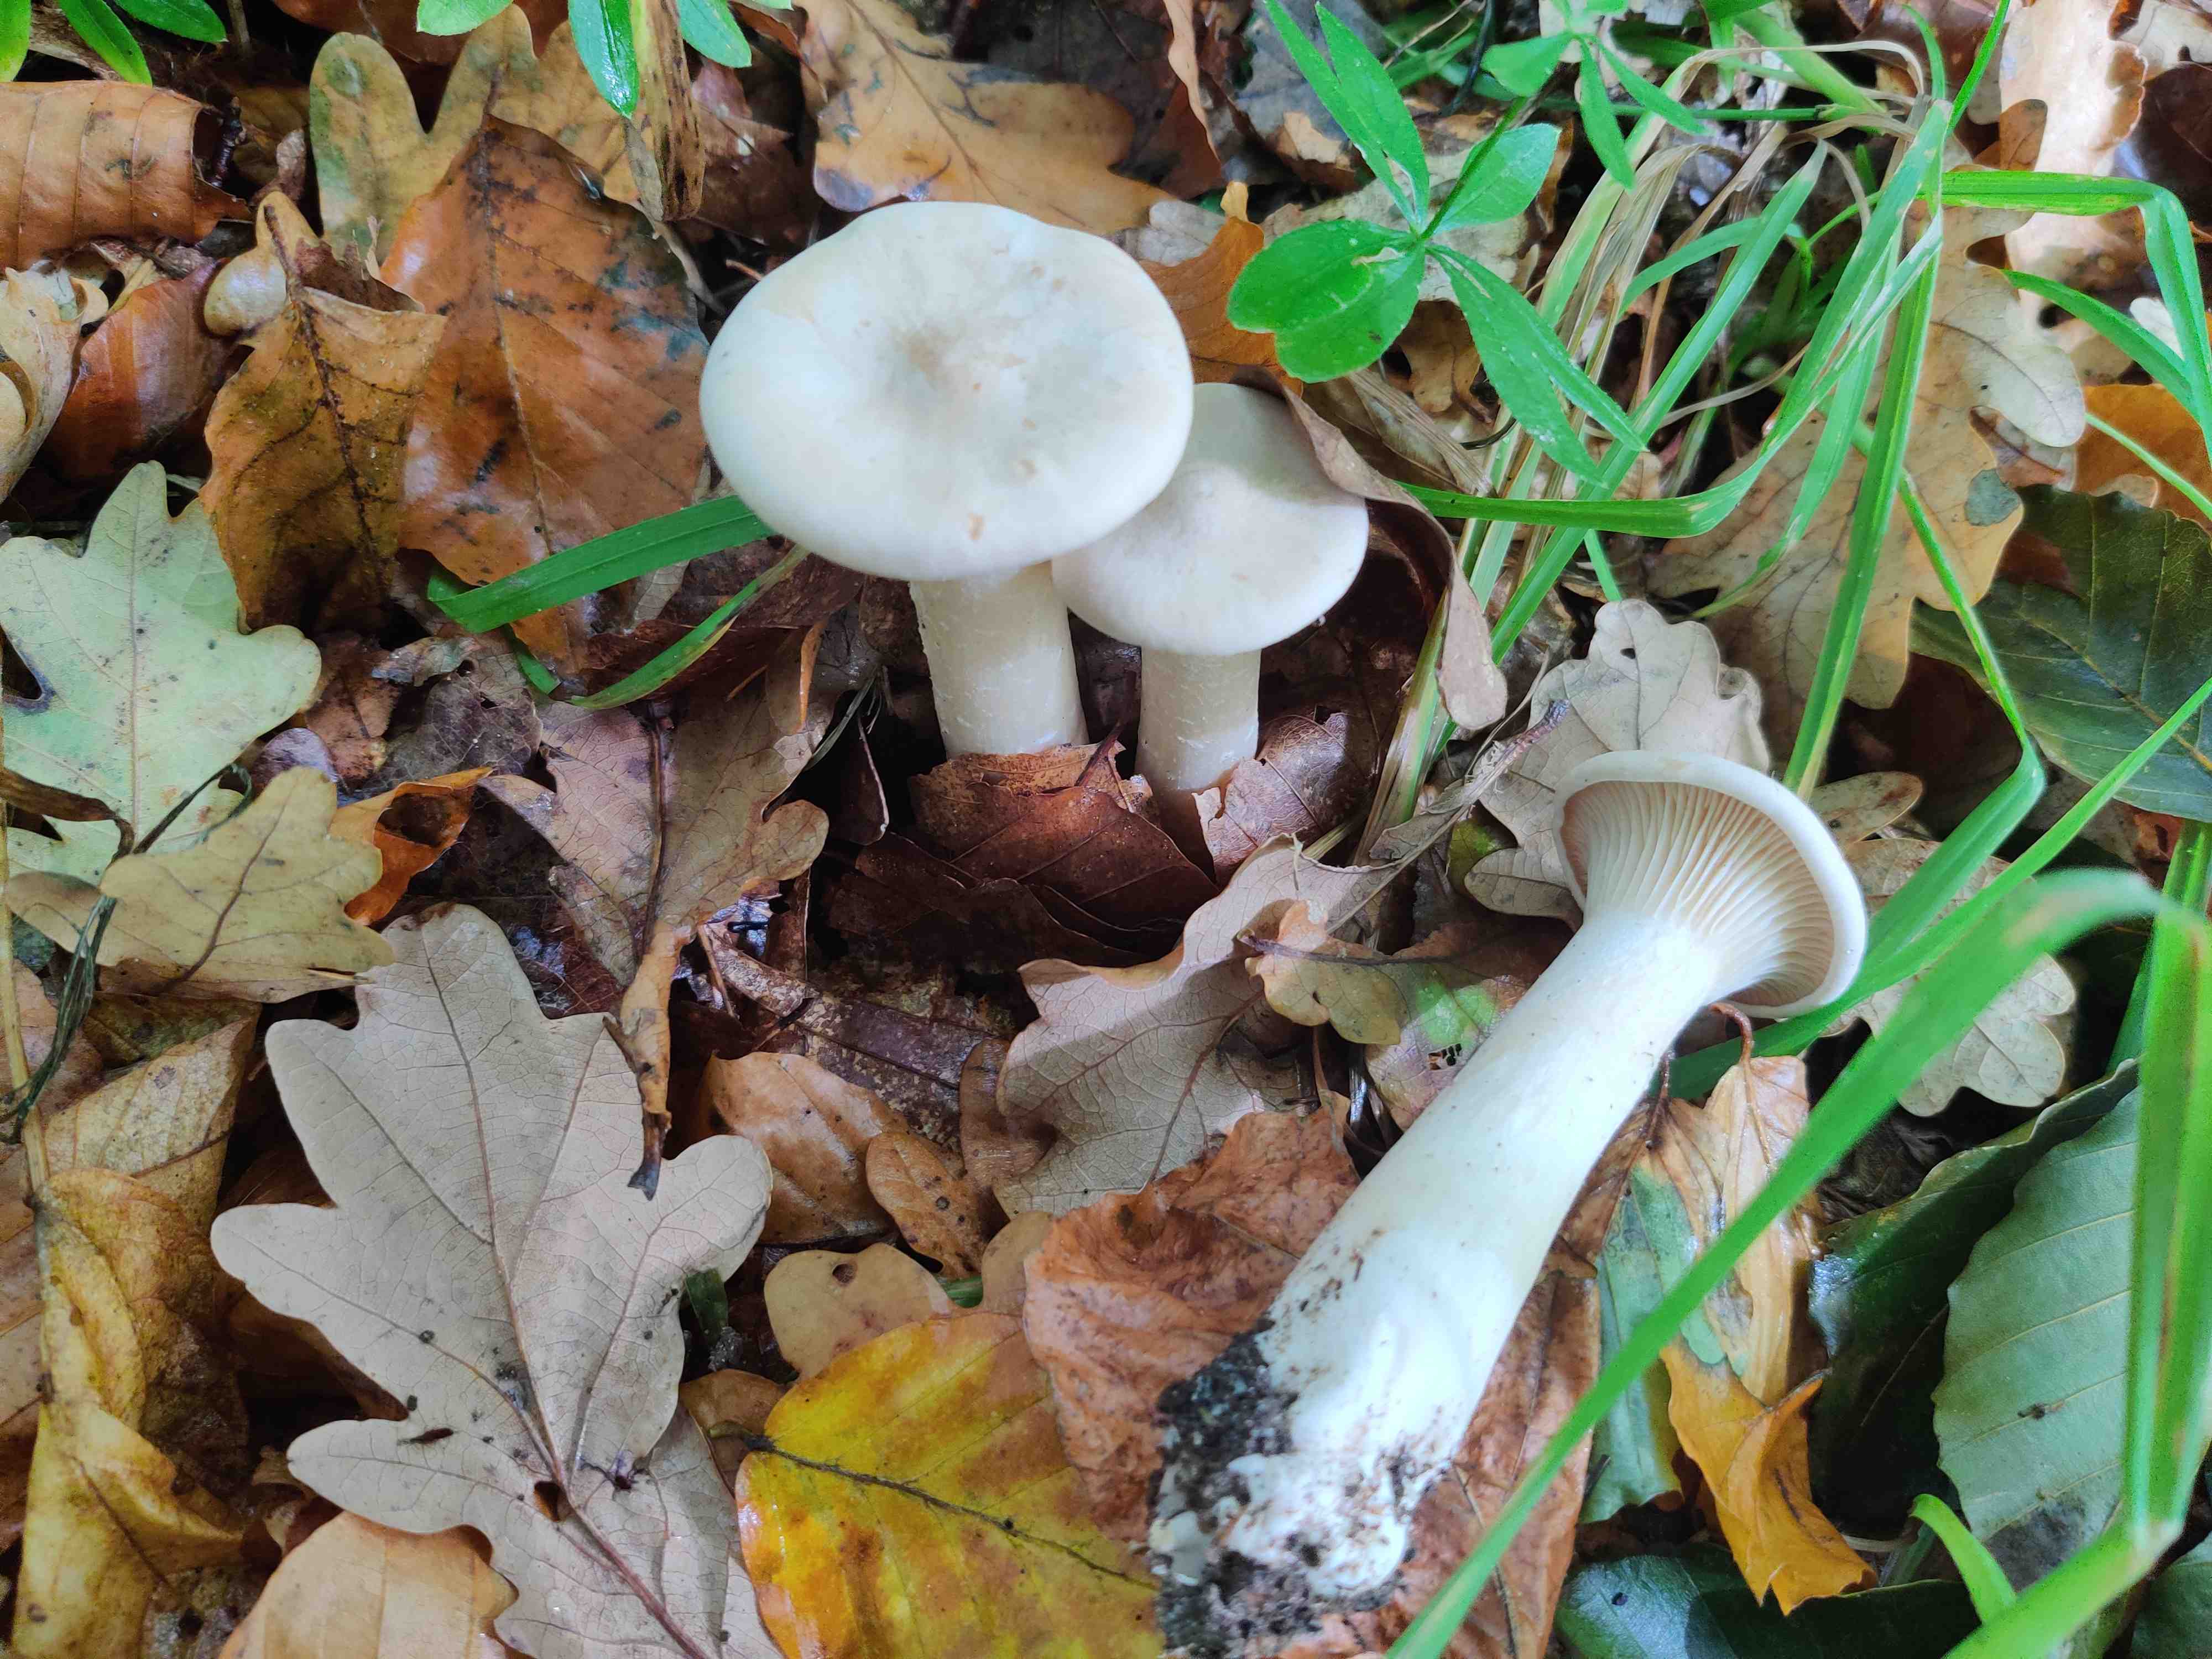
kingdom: Fungi
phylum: Basidiomycota
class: Agaricomycetes
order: Agaricales
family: Tricholomataceae
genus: Infundibulicybe
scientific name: Infundibulicybe geotropa
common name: stor tragthat
